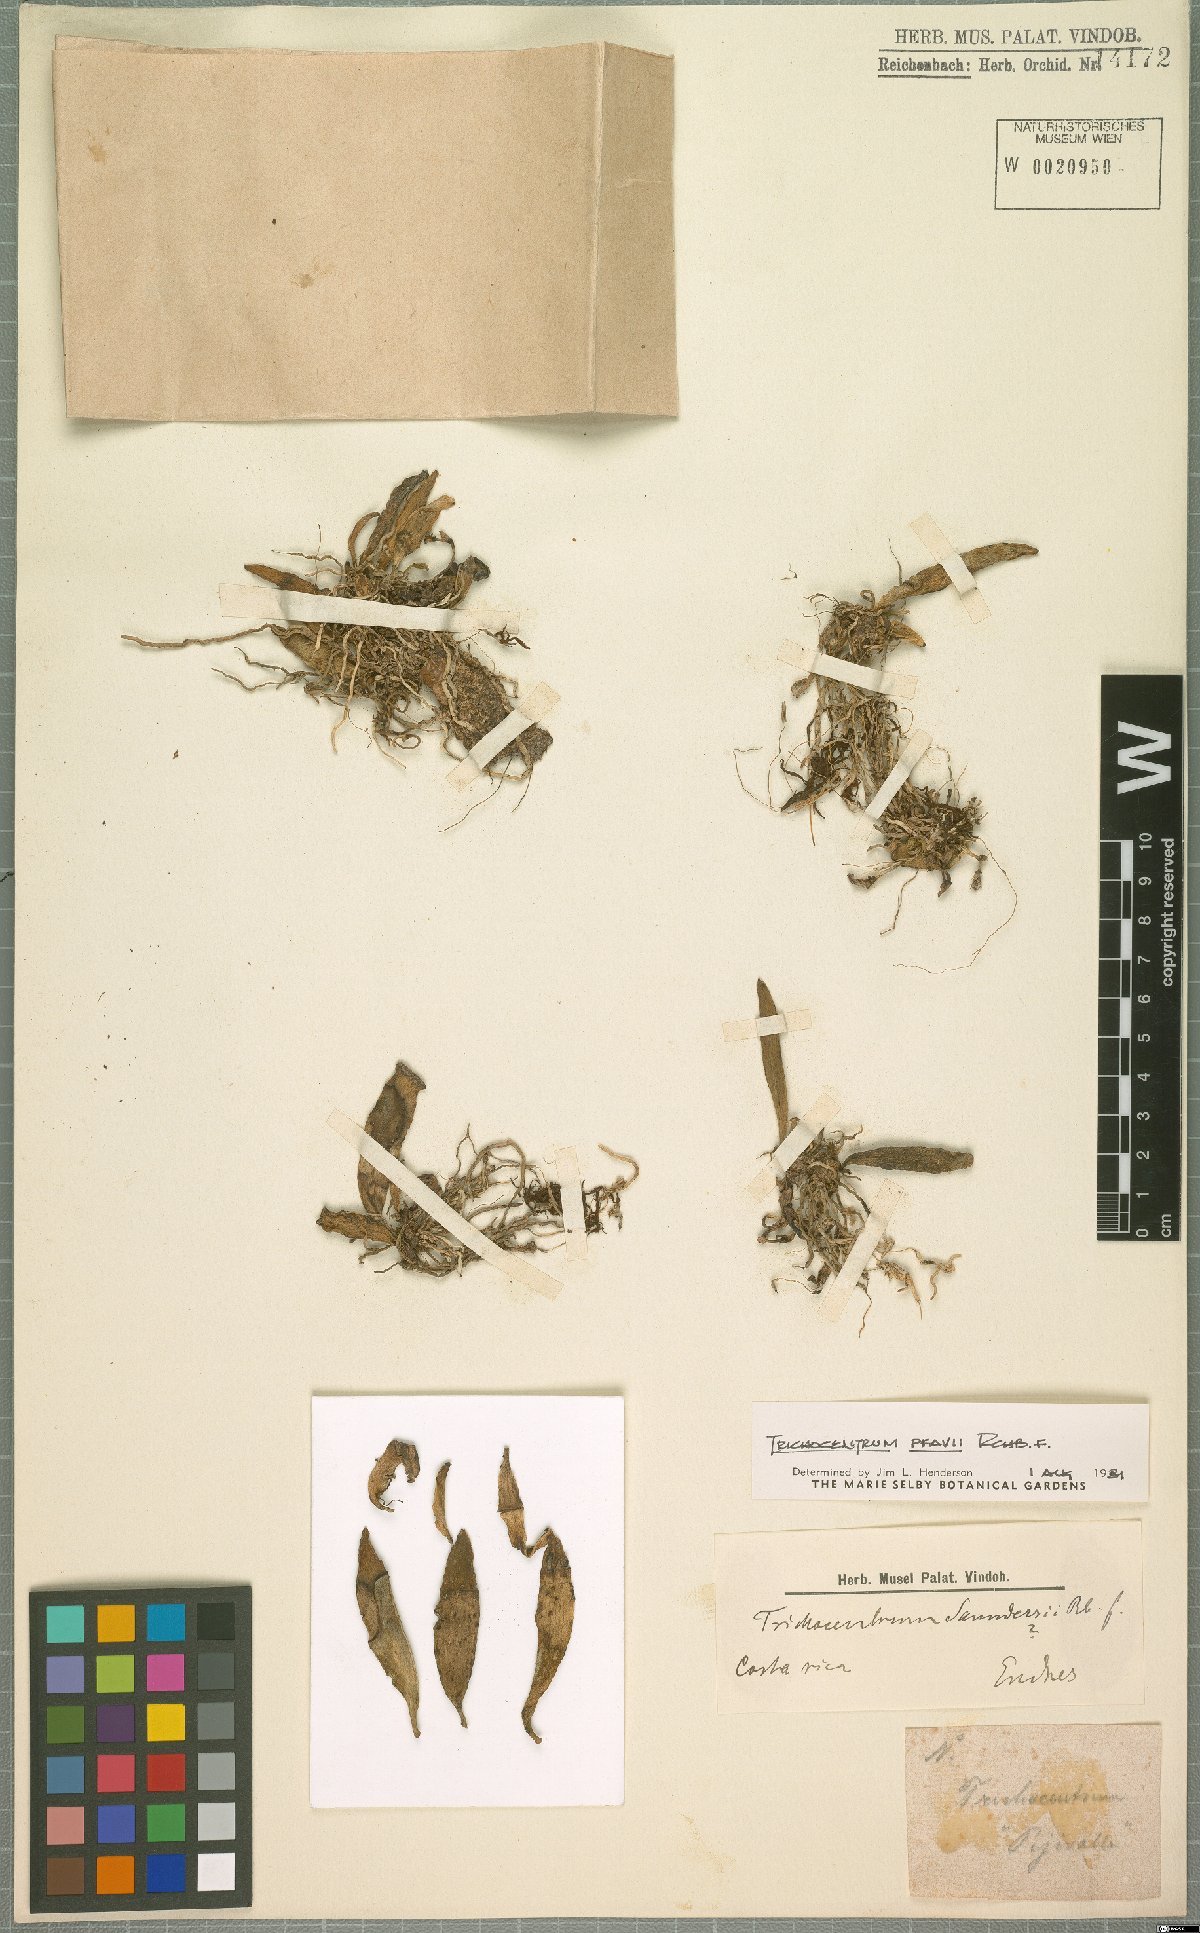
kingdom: Plantae
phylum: Tracheophyta
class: Liliopsida
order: Asparagales
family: Orchidaceae
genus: Trichocentrum
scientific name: Trichocentrum pfavii
